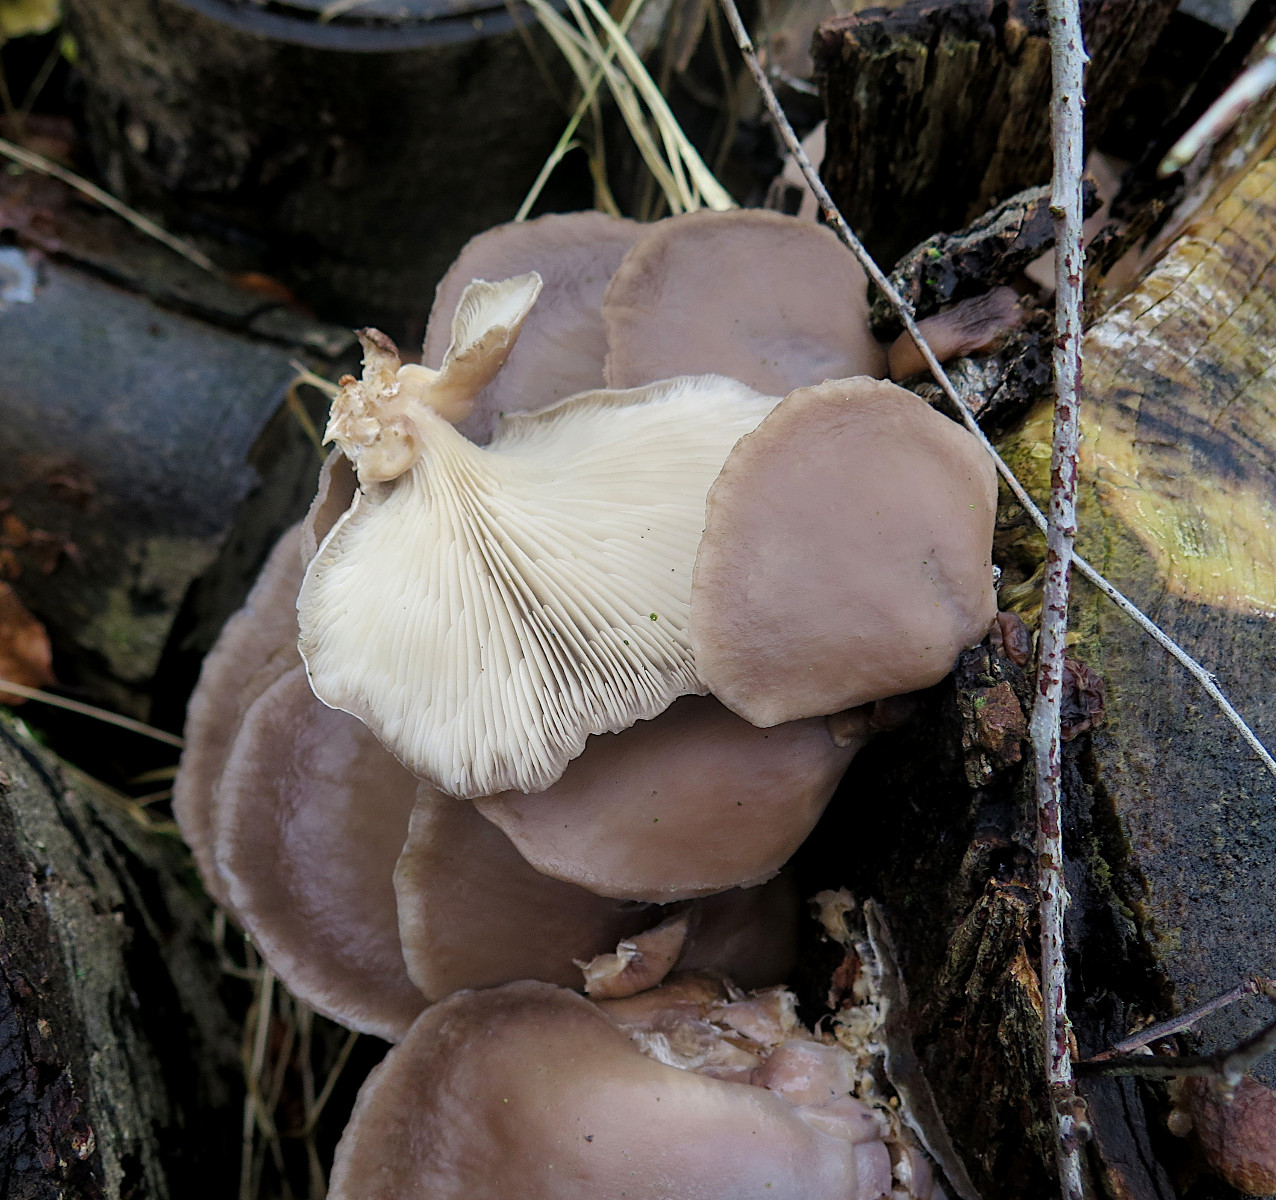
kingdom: Fungi
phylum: Basidiomycota
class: Agaricomycetes
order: Agaricales
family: Pleurotaceae
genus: Pleurotus
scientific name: Pleurotus ostreatus
